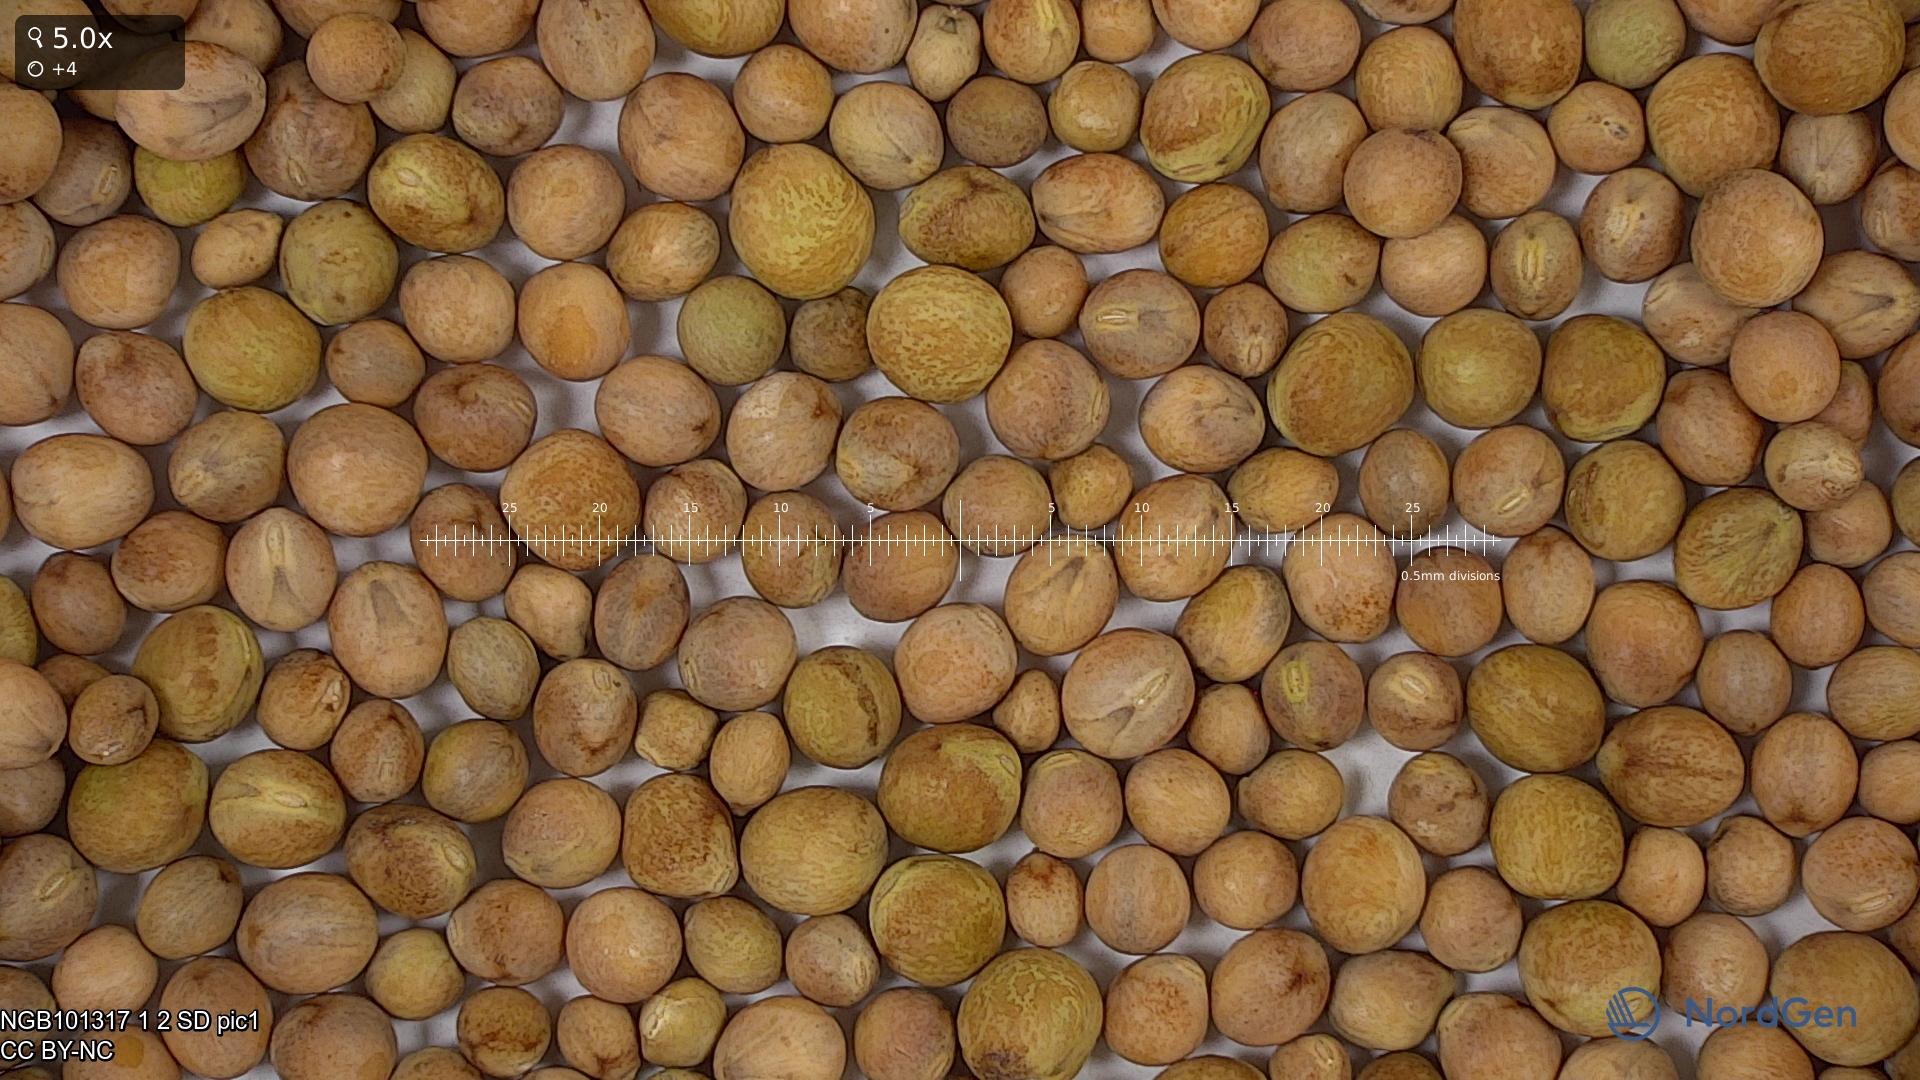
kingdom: Plantae
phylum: Tracheophyta
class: Magnoliopsida
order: Fabales
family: Fabaceae
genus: Lathyrus
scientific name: Lathyrus oleraceus
